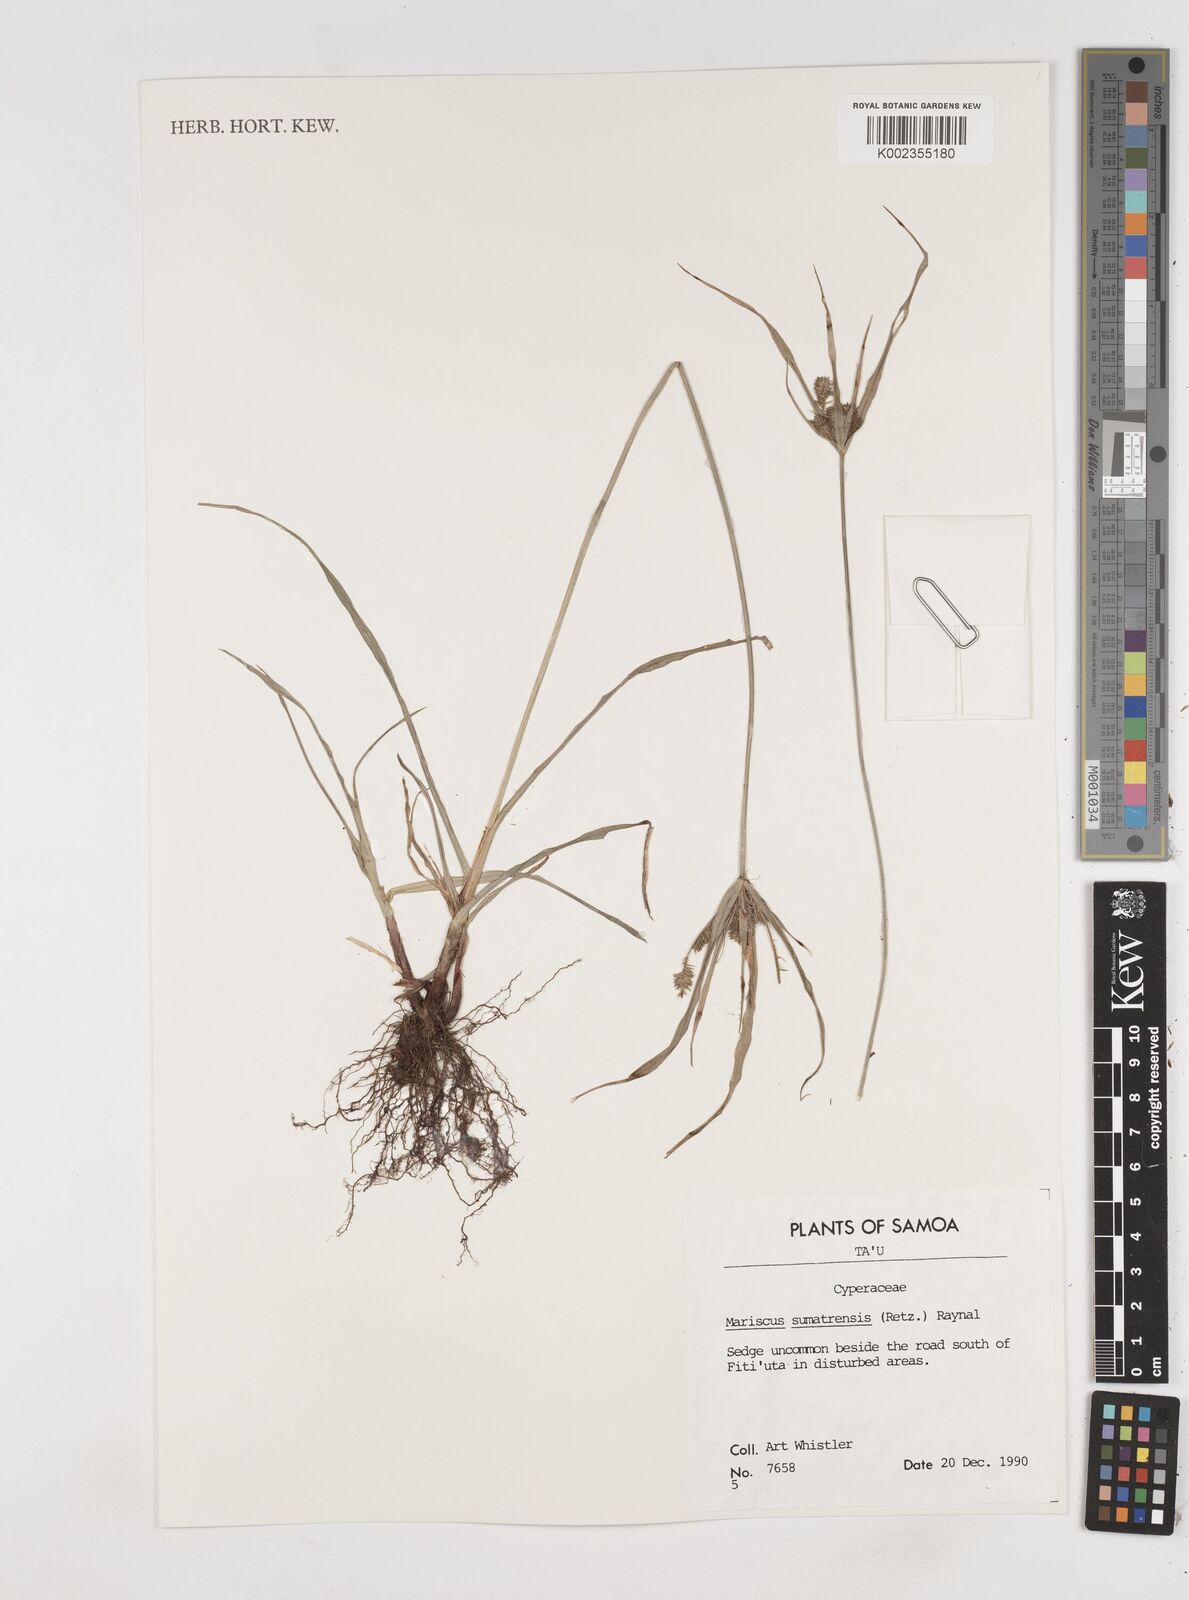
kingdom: Plantae
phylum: Tracheophyta
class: Liliopsida
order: Poales
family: Cyperaceae
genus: Cyperus
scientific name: Cyperus cyperoides
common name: Pacific island flat sedge
